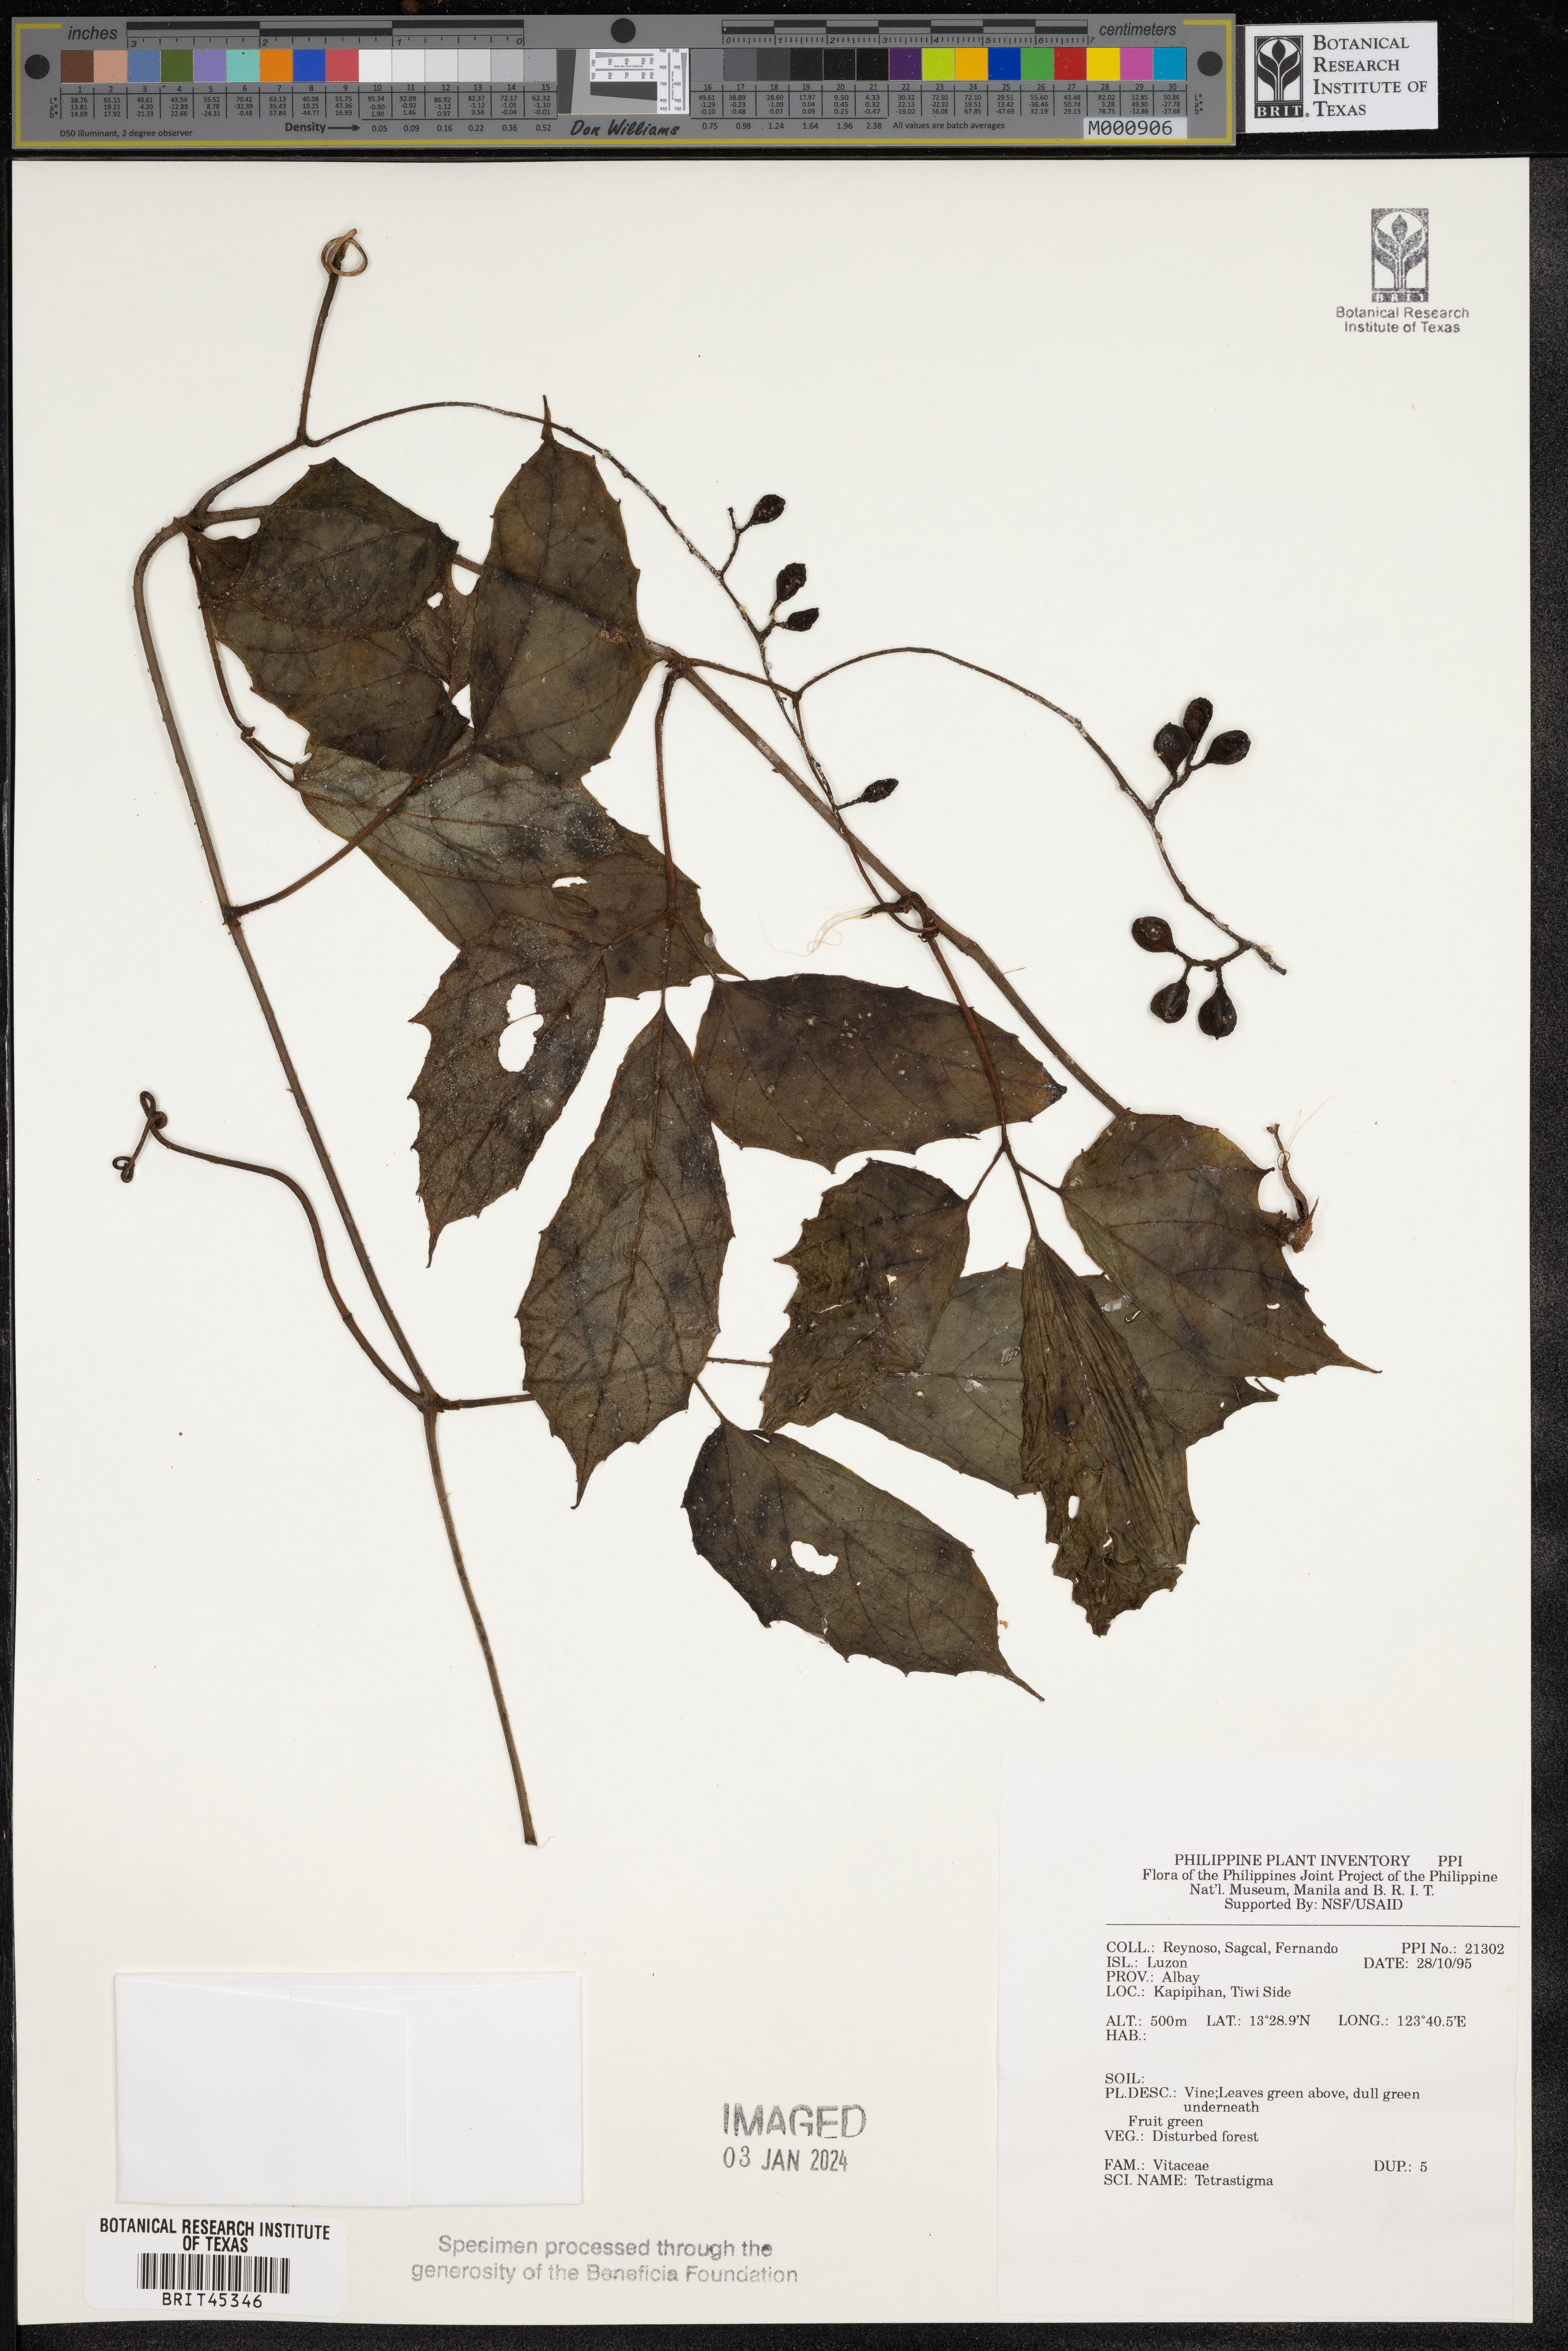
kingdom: Plantae
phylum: Tracheophyta
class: Magnoliopsida
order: Vitales
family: Vitaceae
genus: Tetrastigma
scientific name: Tetrastigma
